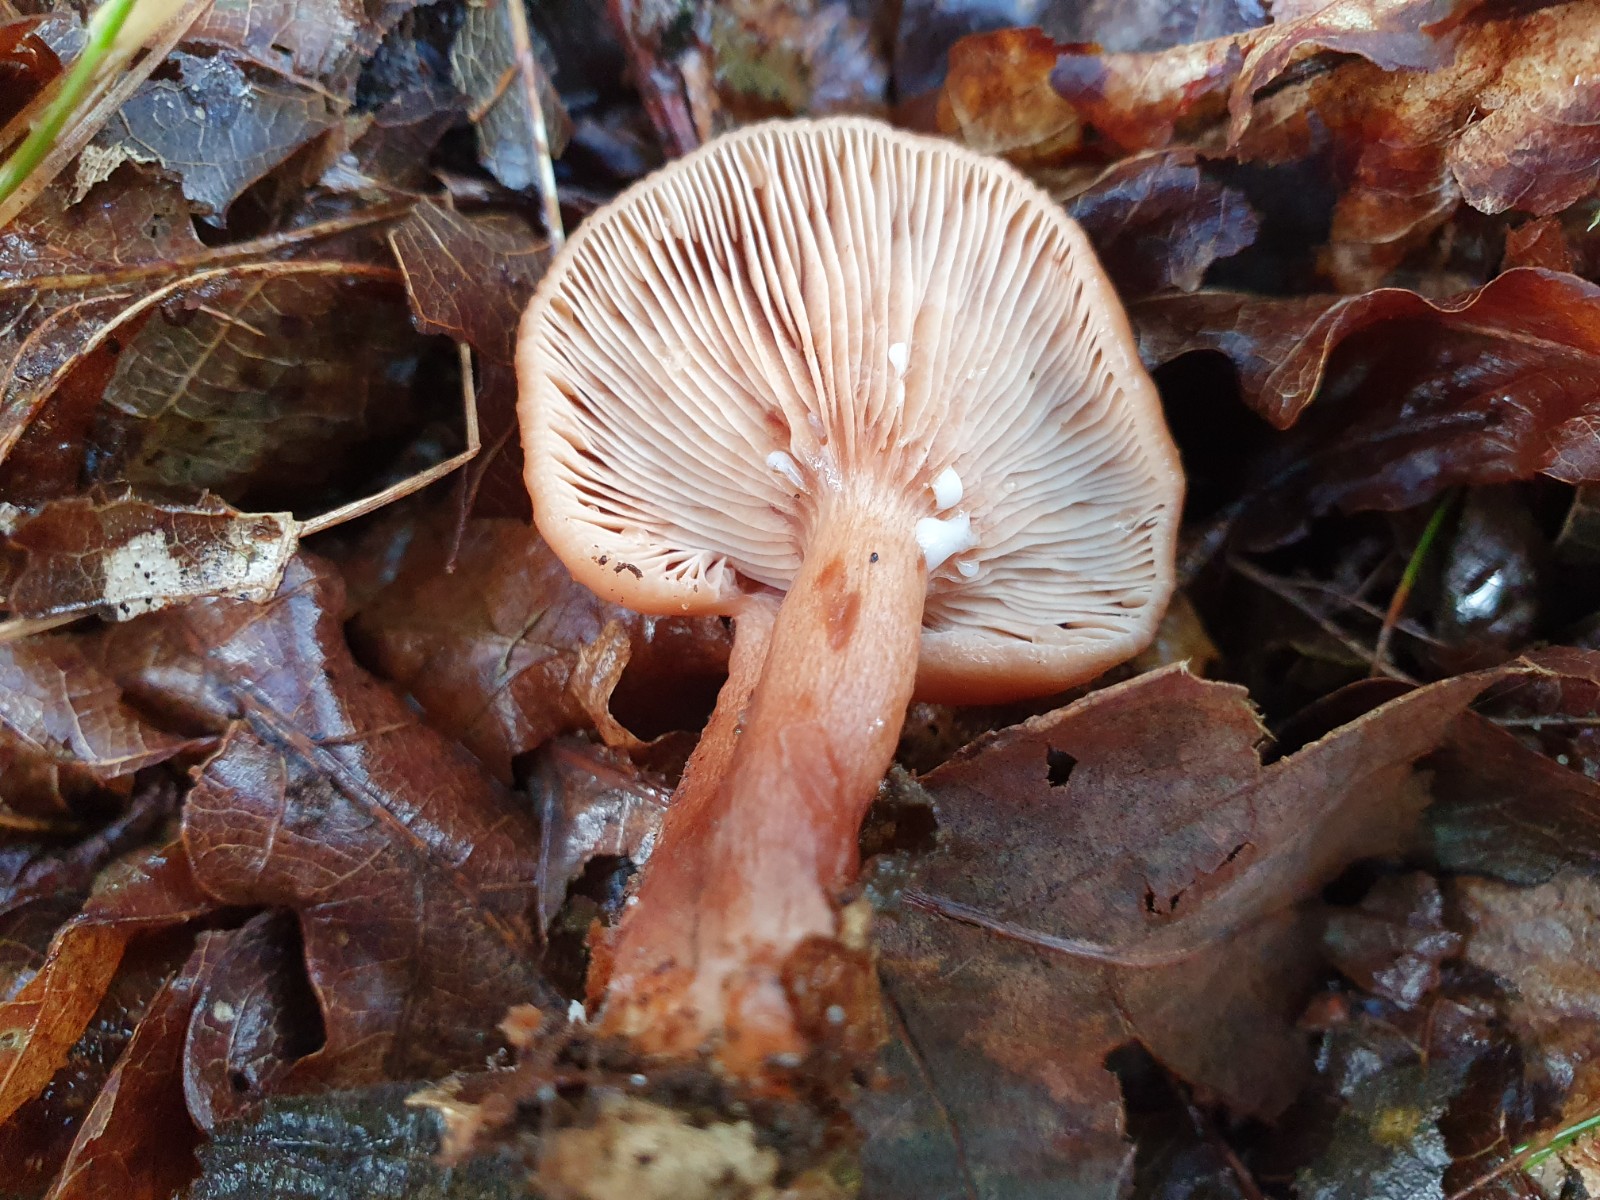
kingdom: Fungi
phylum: Basidiomycota
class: Agaricomycetes
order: Russulales
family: Russulaceae
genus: Lactarius
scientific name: Lactarius rufus
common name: rødbrun mælkehat
